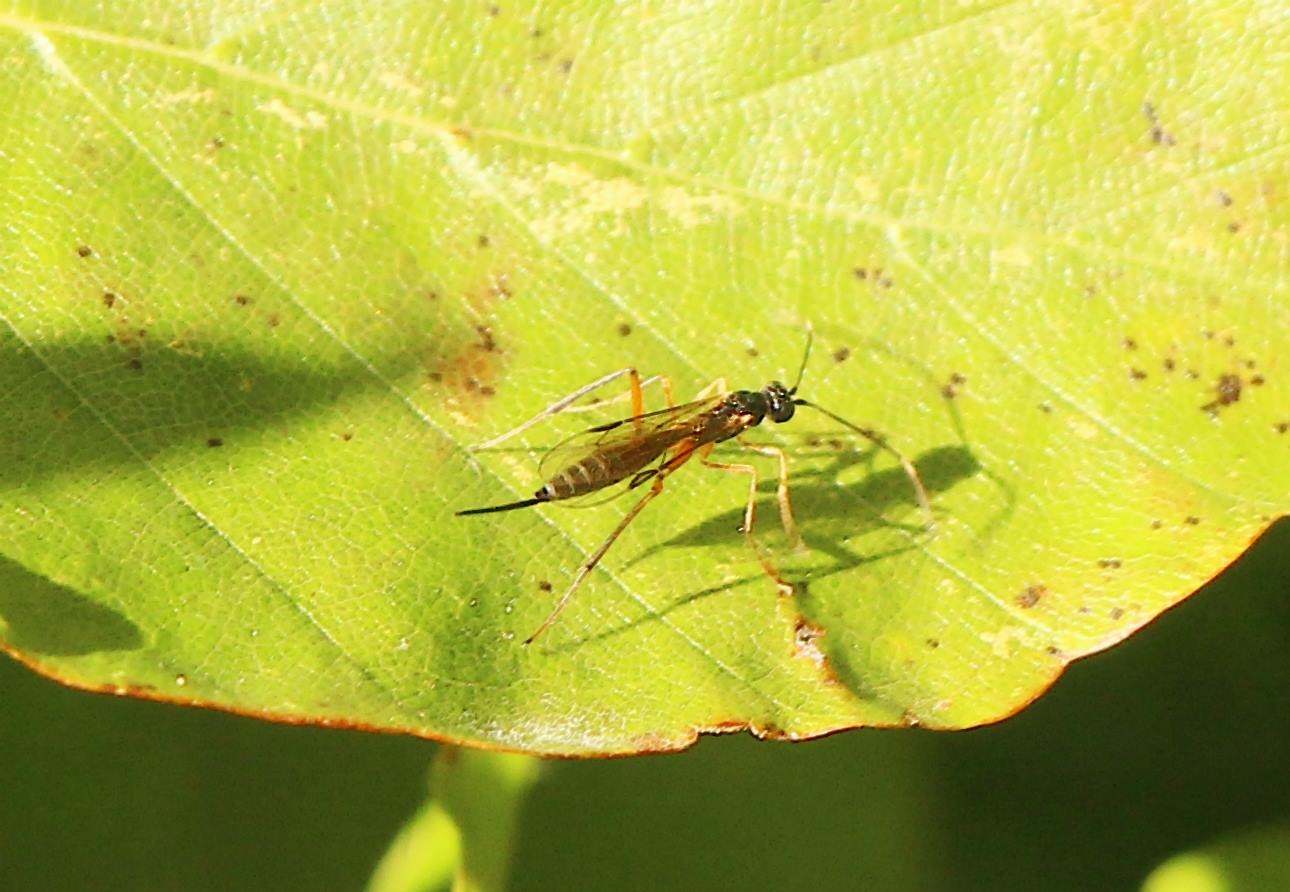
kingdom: Animalia
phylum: Arthropoda
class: Insecta
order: Hymenoptera
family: Ichneumonidae
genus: Deuteroxorides
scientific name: Deuteroxorides elevator
